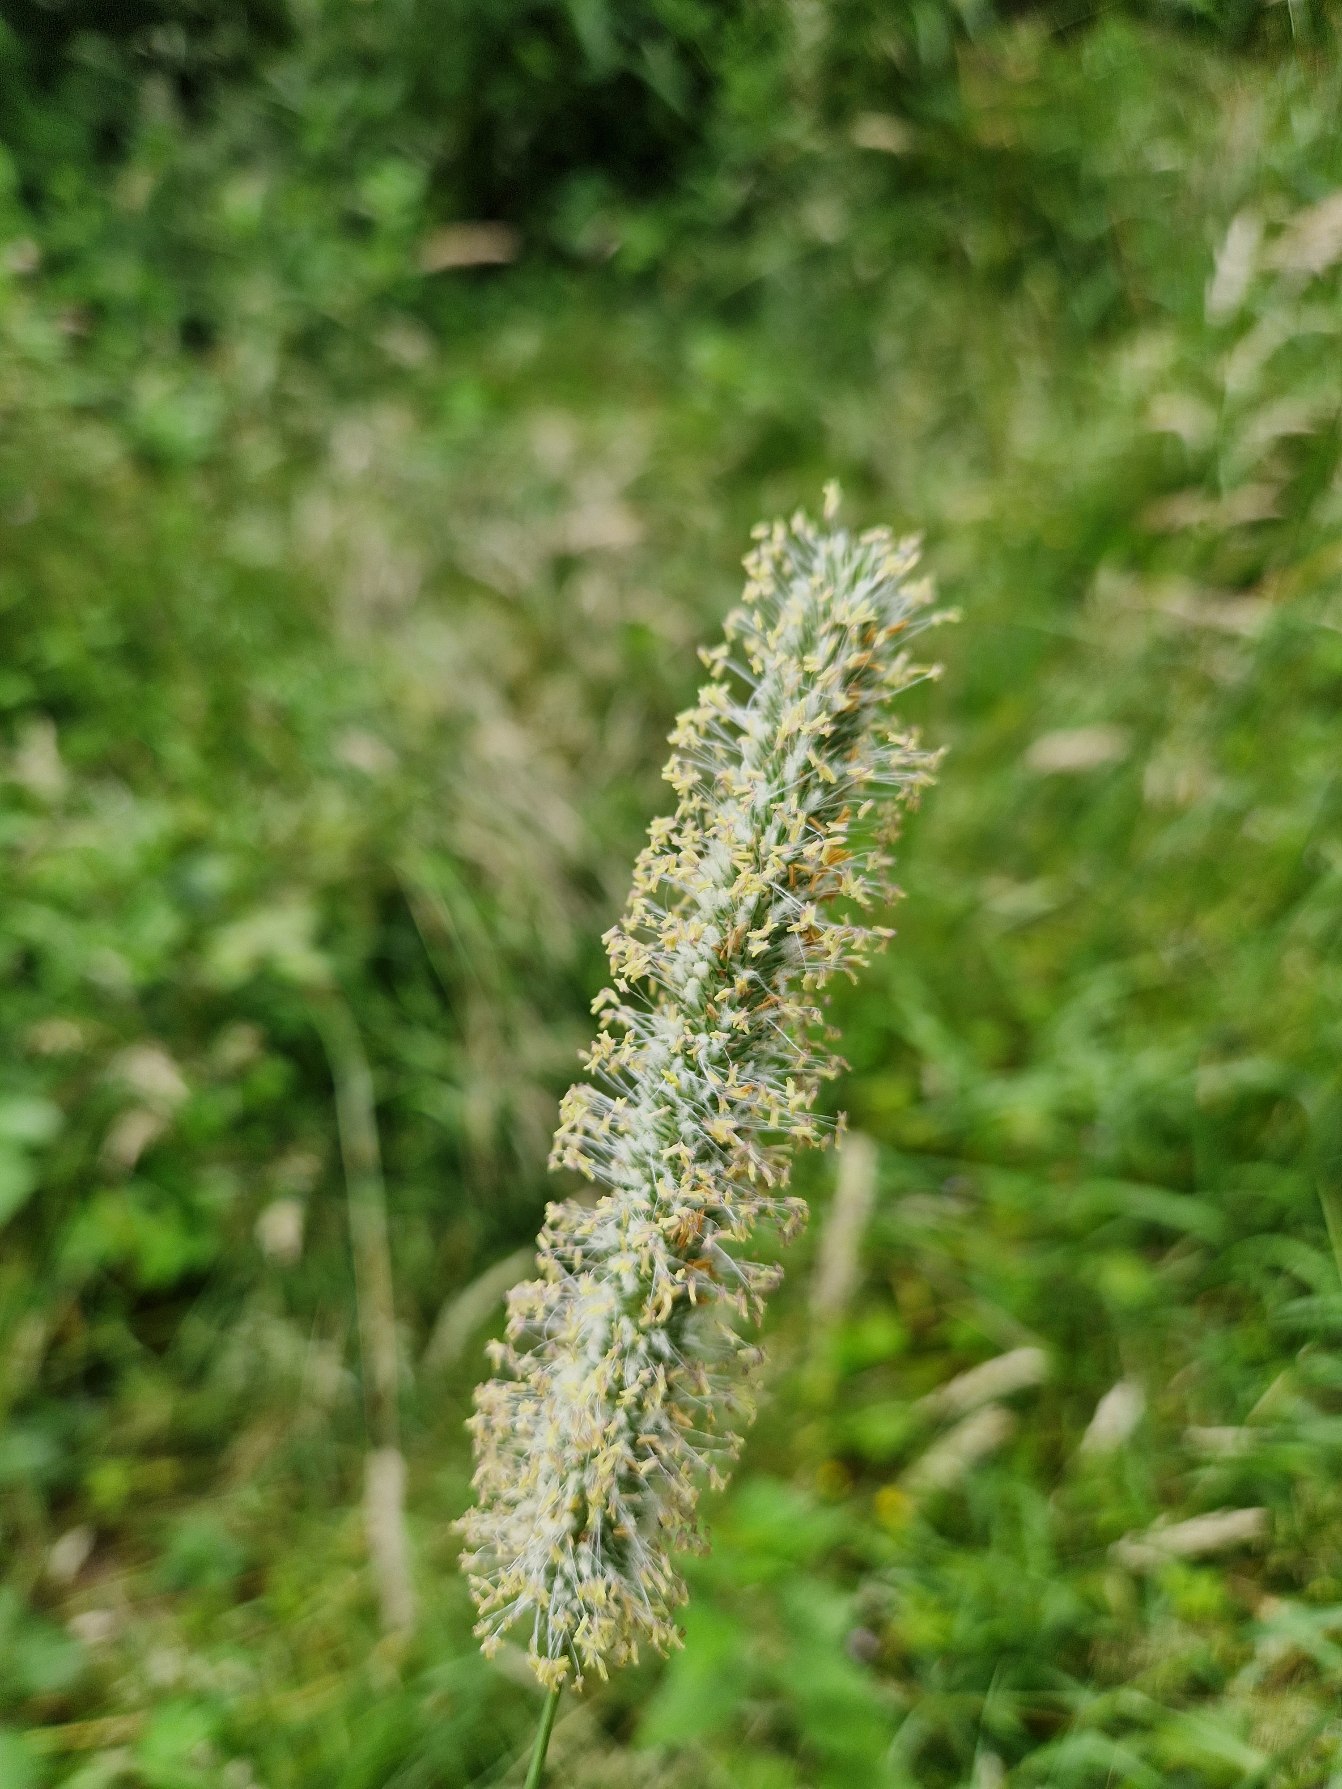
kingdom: Plantae
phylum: Tracheophyta
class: Liliopsida
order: Poales
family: Poaceae
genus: Phleum
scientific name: Phleum pratense
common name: Eng-rottehale
